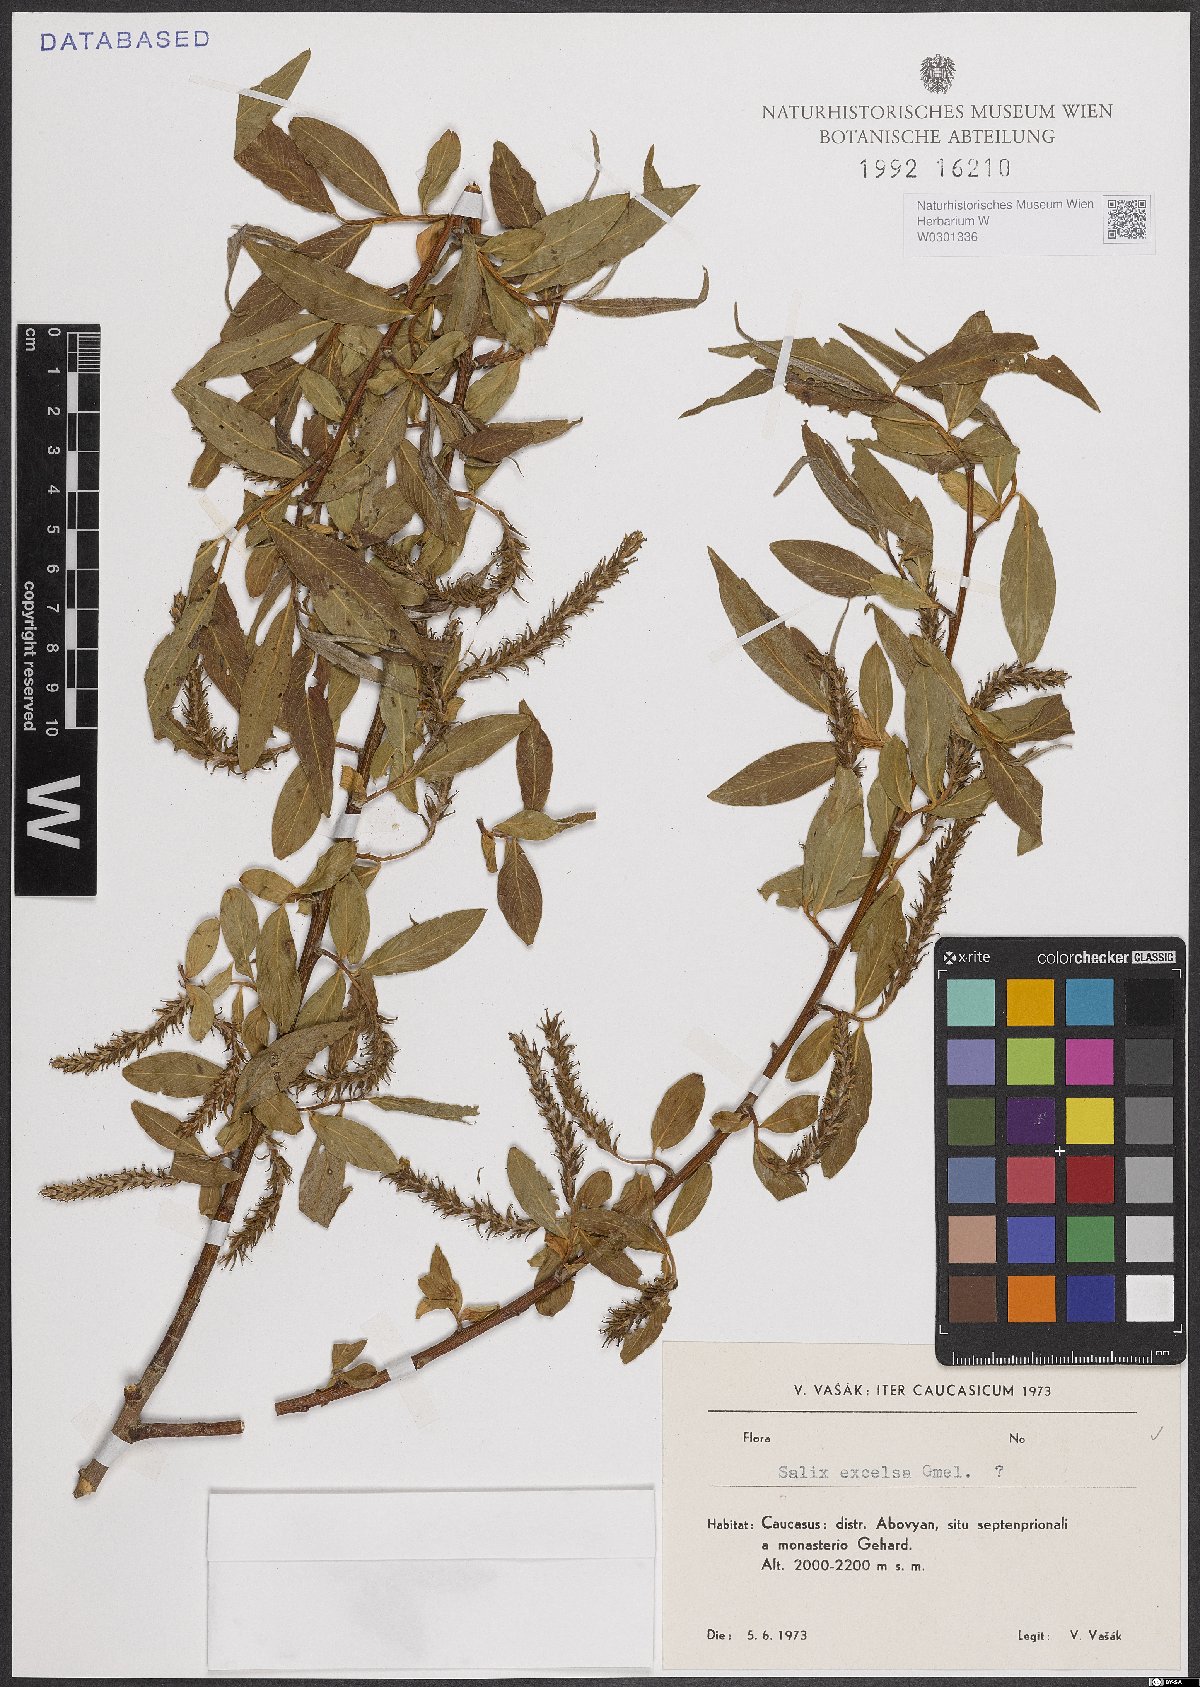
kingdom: Plantae
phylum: Tracheophyta
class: Magnoliopsida
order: Malpighiales
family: Salicaceae
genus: Salix
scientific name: Salix excelsa
